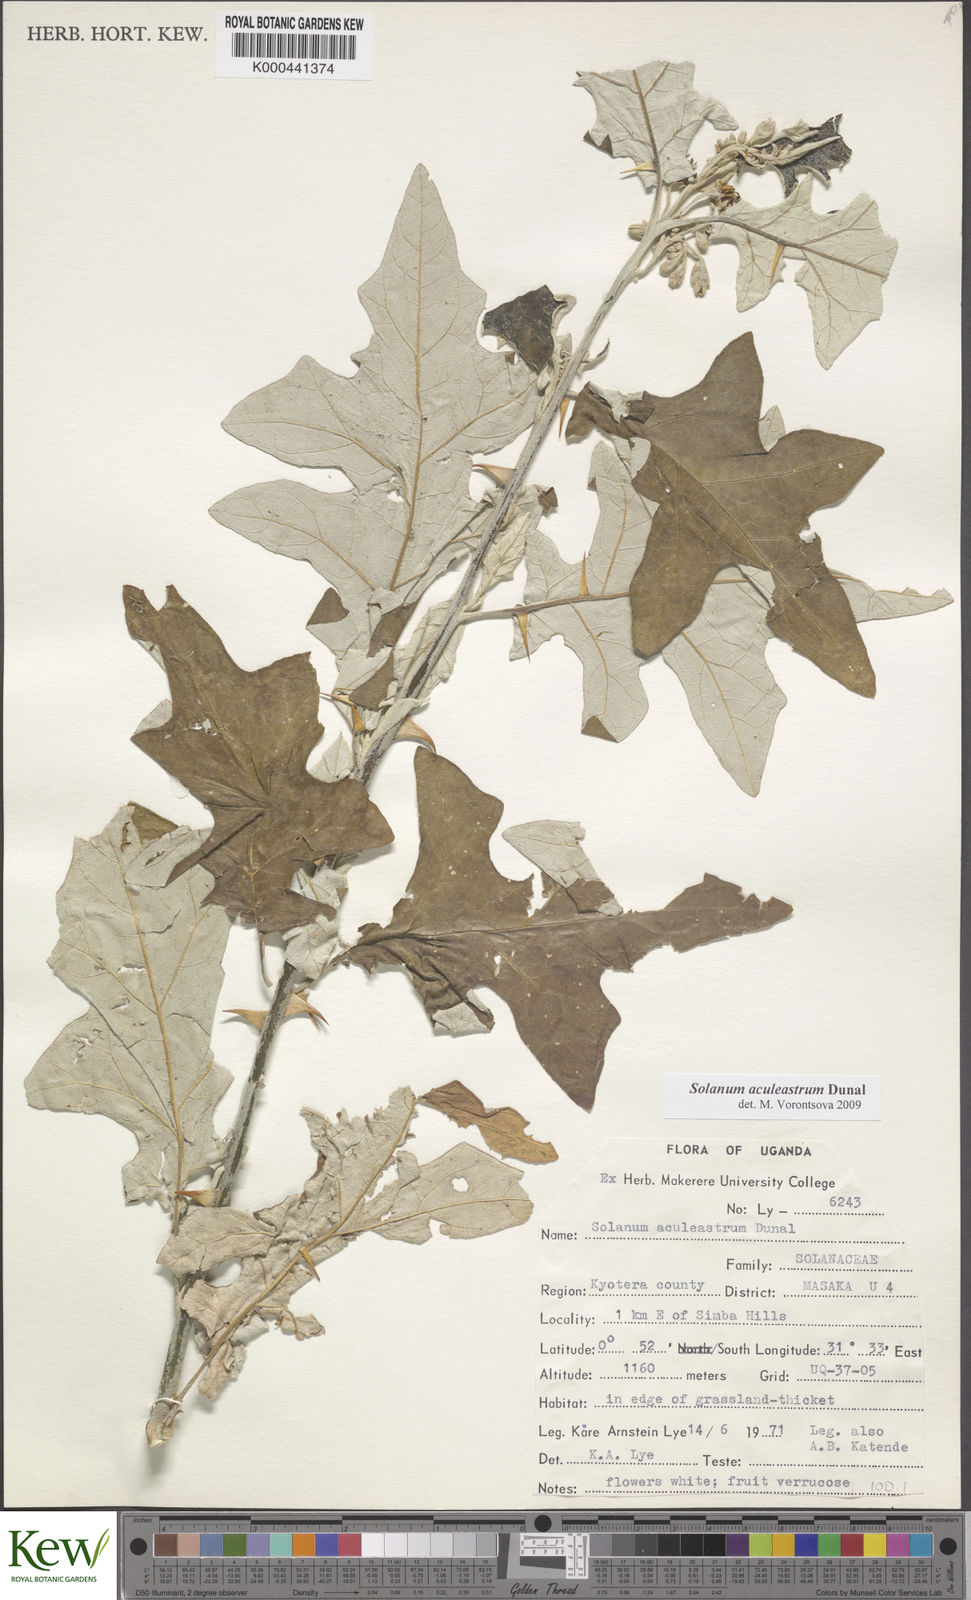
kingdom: Plantae
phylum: Tracheophyta
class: Magnoliopsida
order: Solanales
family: Solanaceae
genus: Solanum
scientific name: Solanum aculeastrum
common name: Goat bitter-apple
